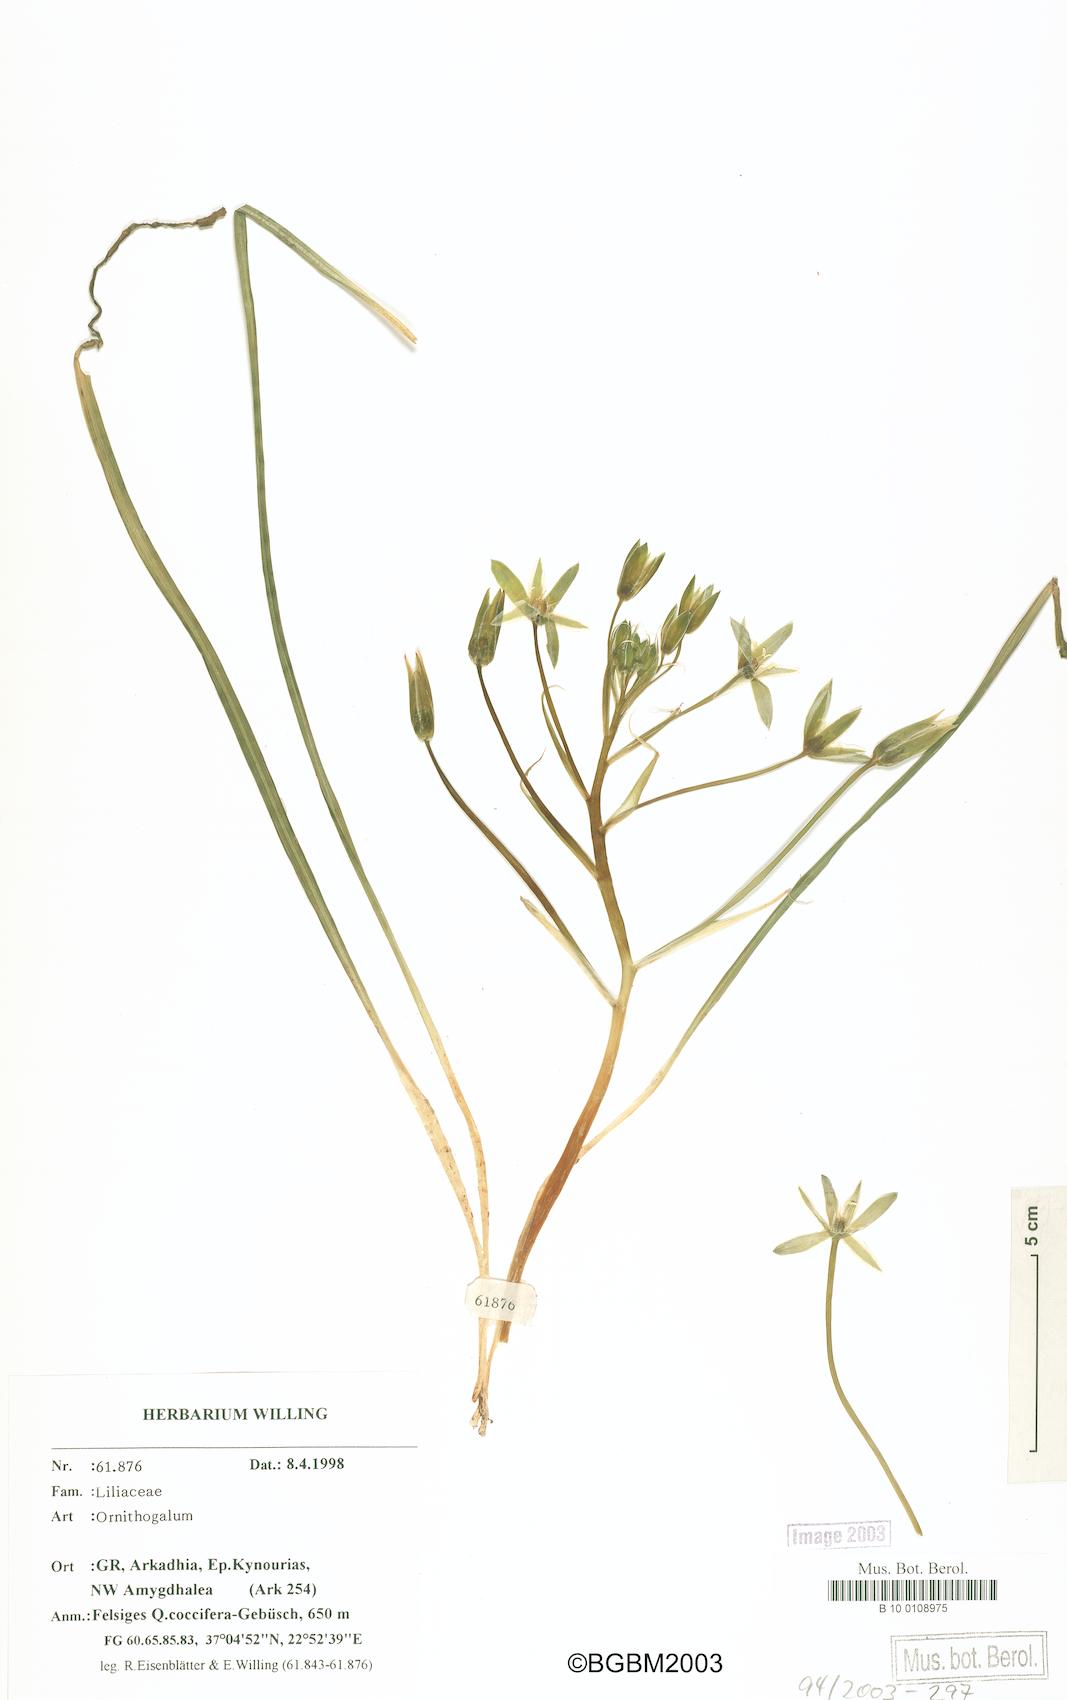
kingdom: Plantae
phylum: Tracheophyta
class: Liliopsida
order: Liliales
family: Liliaceae
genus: Ornithogalum
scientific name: Ornithogalum
